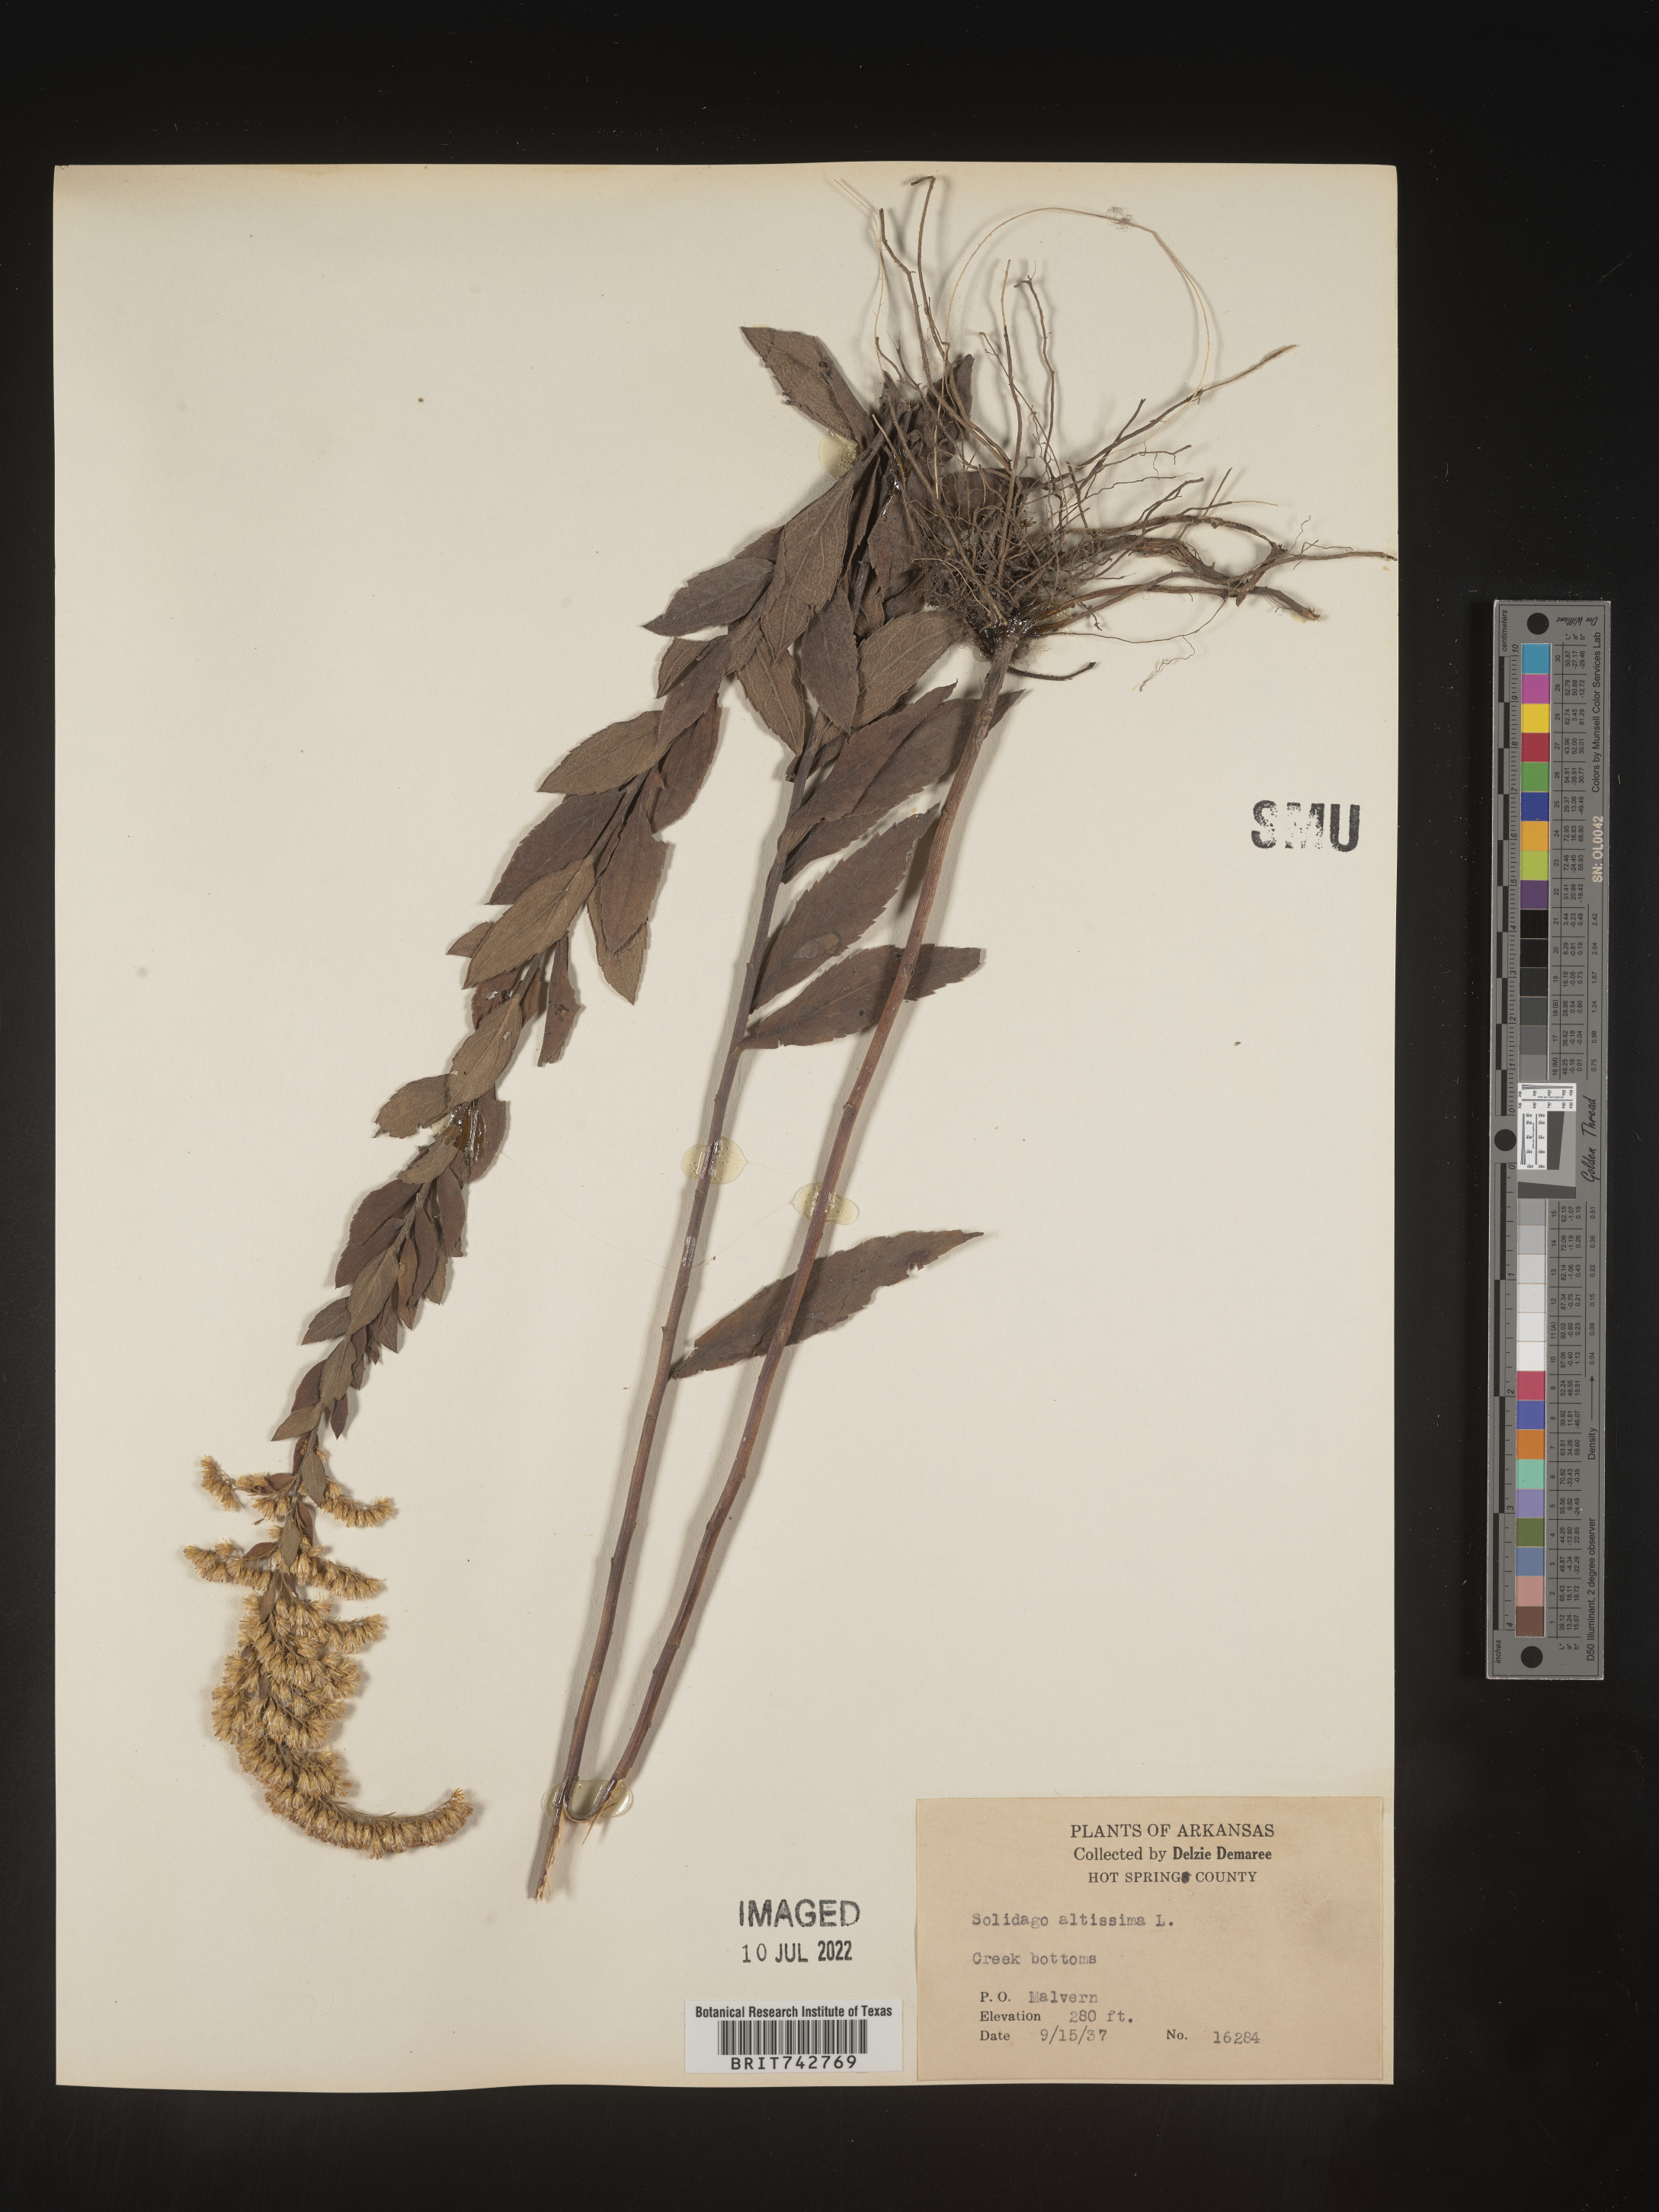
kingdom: Plantae
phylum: Tracheophyta
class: Magnoliopsida
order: Asterales
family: Asteraceae
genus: Solidago
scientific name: Solidago altissima
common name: Late goldenrod
